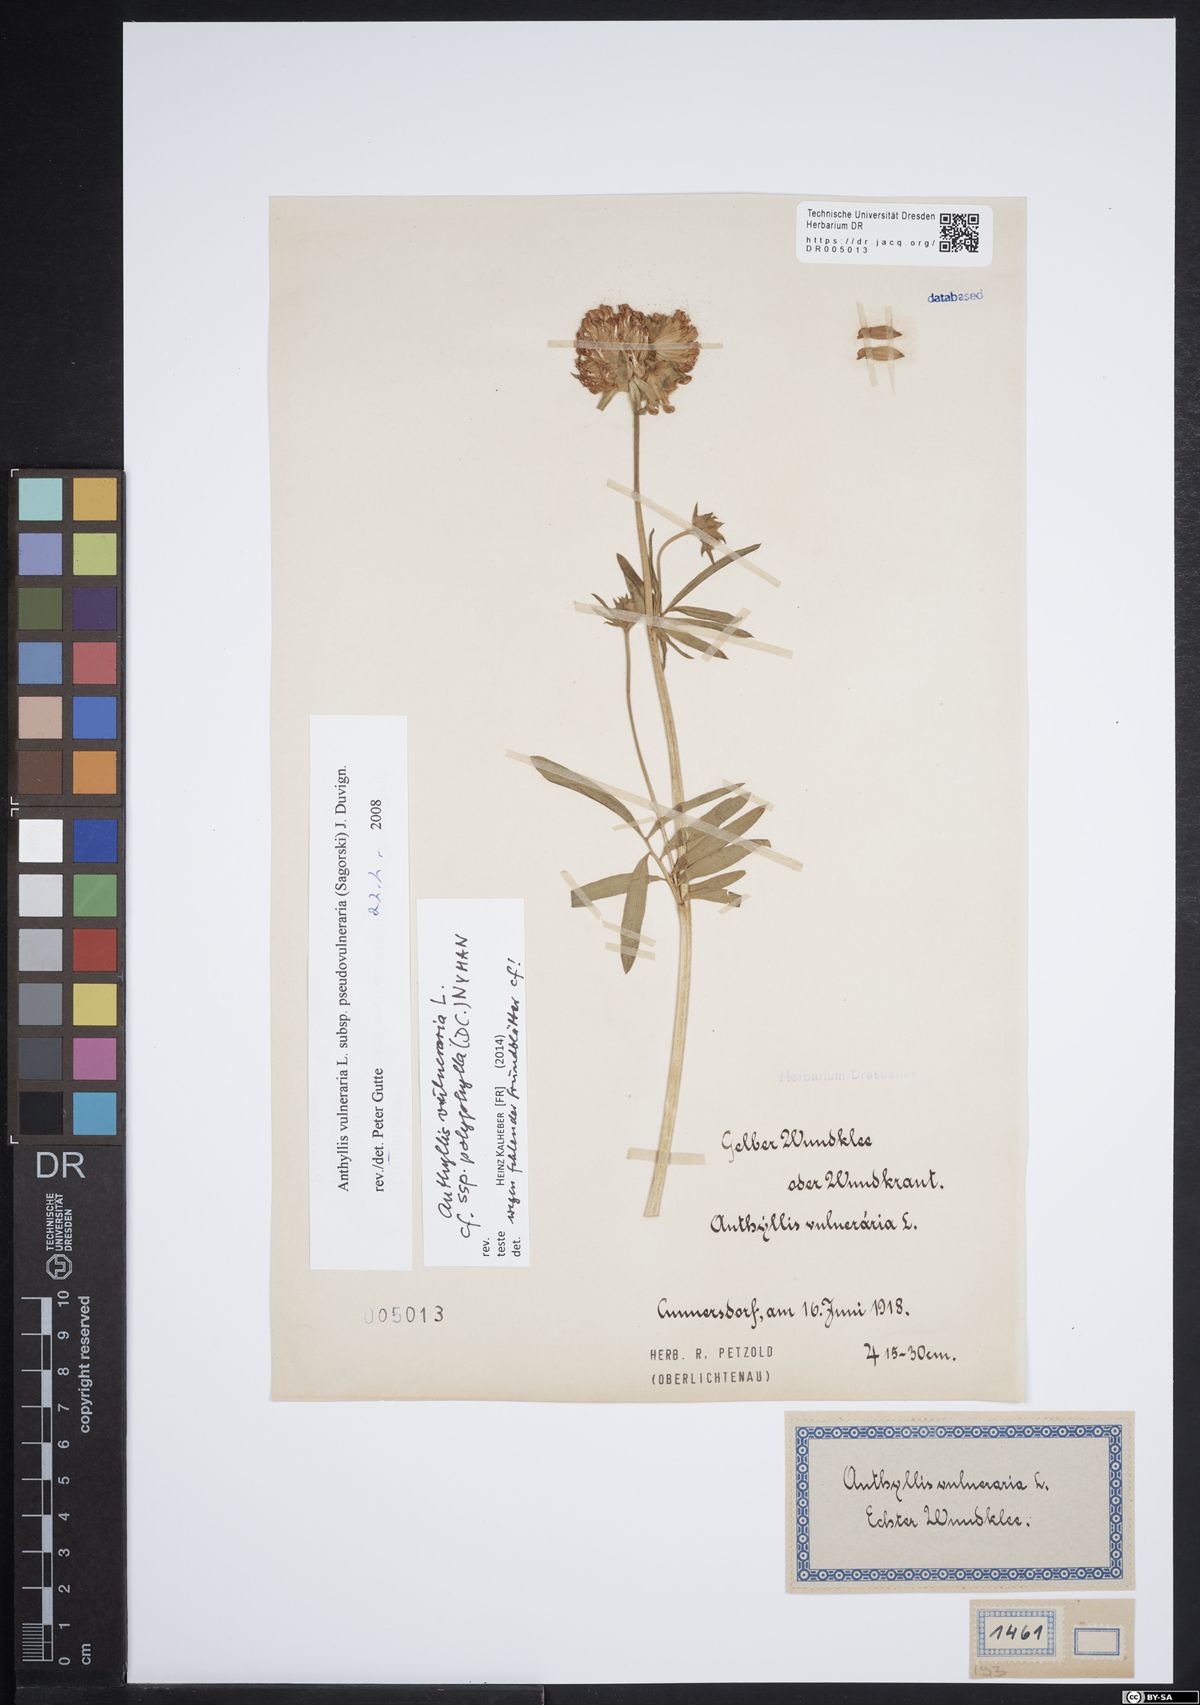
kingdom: Plantae
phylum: Tracheophyta
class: Magnoliopsida
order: Fabales
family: Fabaceae
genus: Anthyllis
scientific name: Anthyllis vulneraria
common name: Kidney vetch
